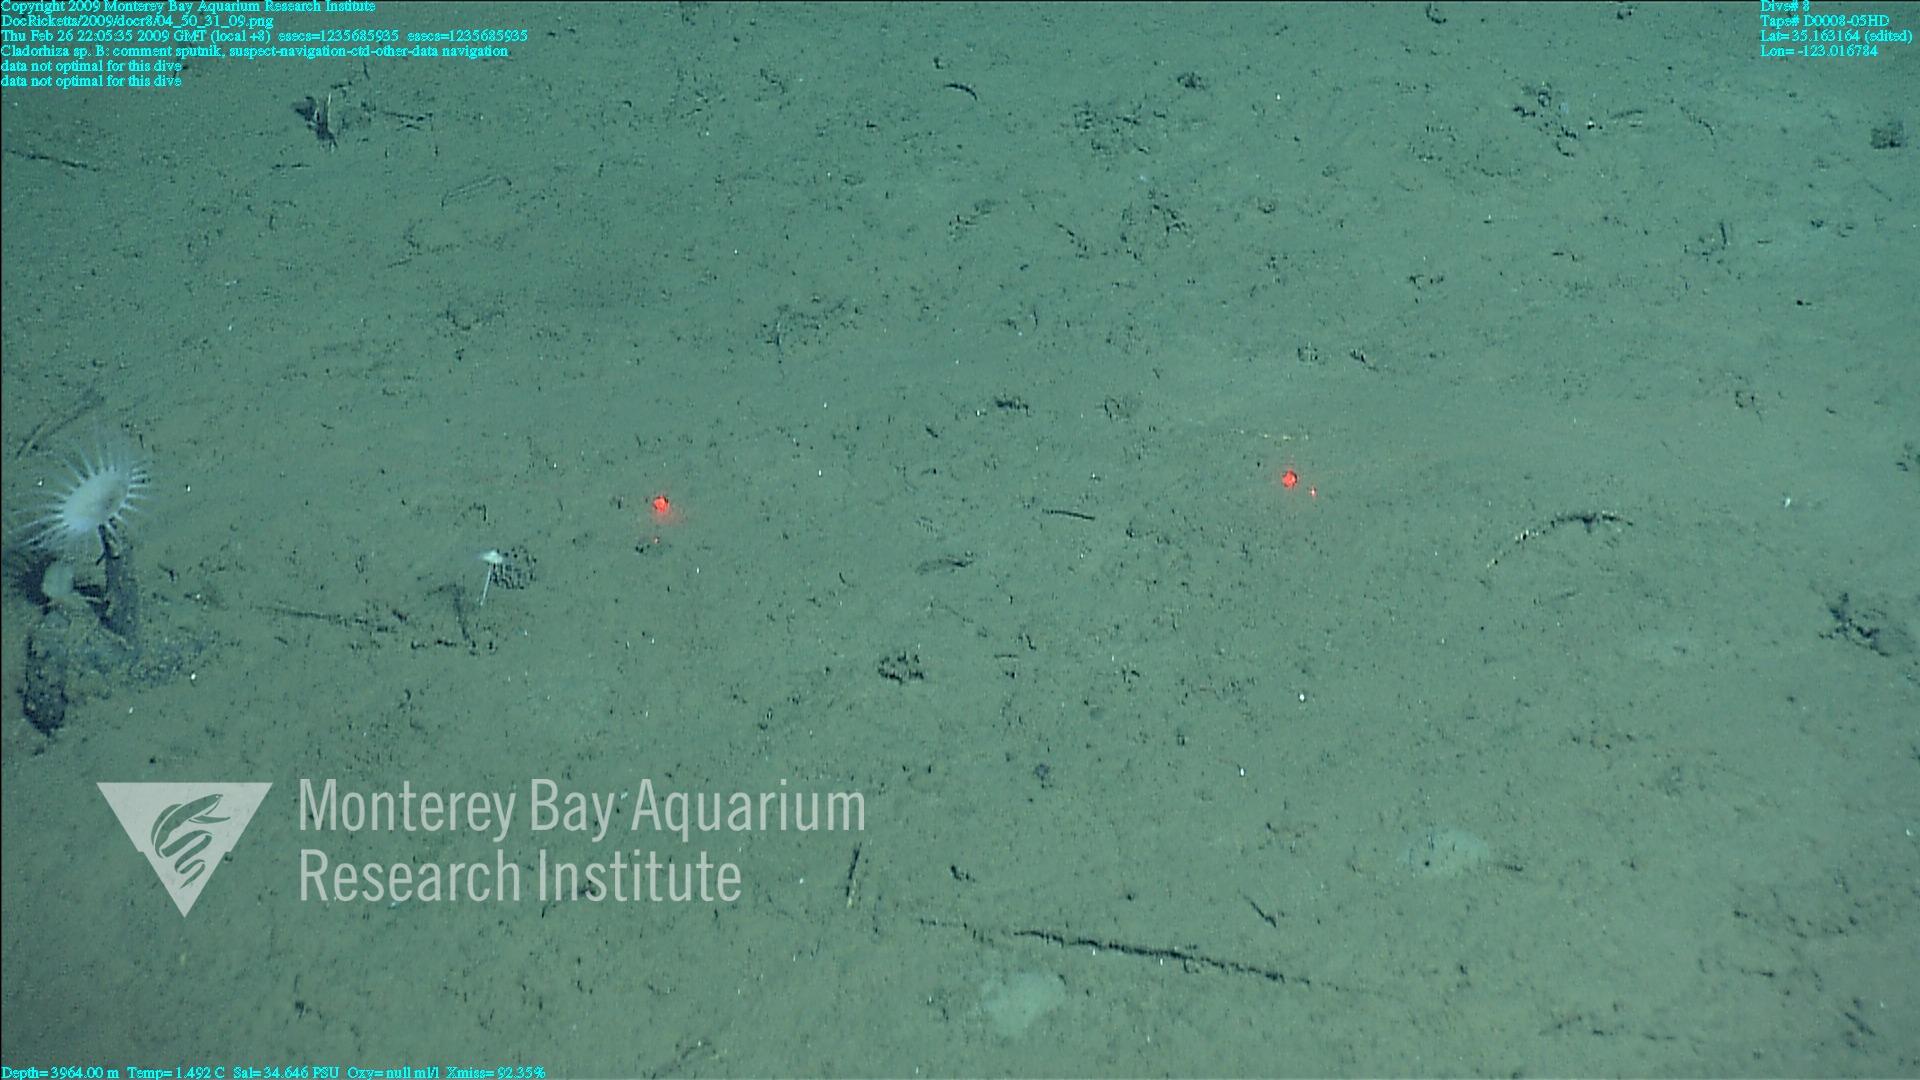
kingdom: Animalia
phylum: Porifera
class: Demospongiae
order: Poecilosclerida
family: Cladorhizidae
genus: Cladorhiza
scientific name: Cladorhiza
